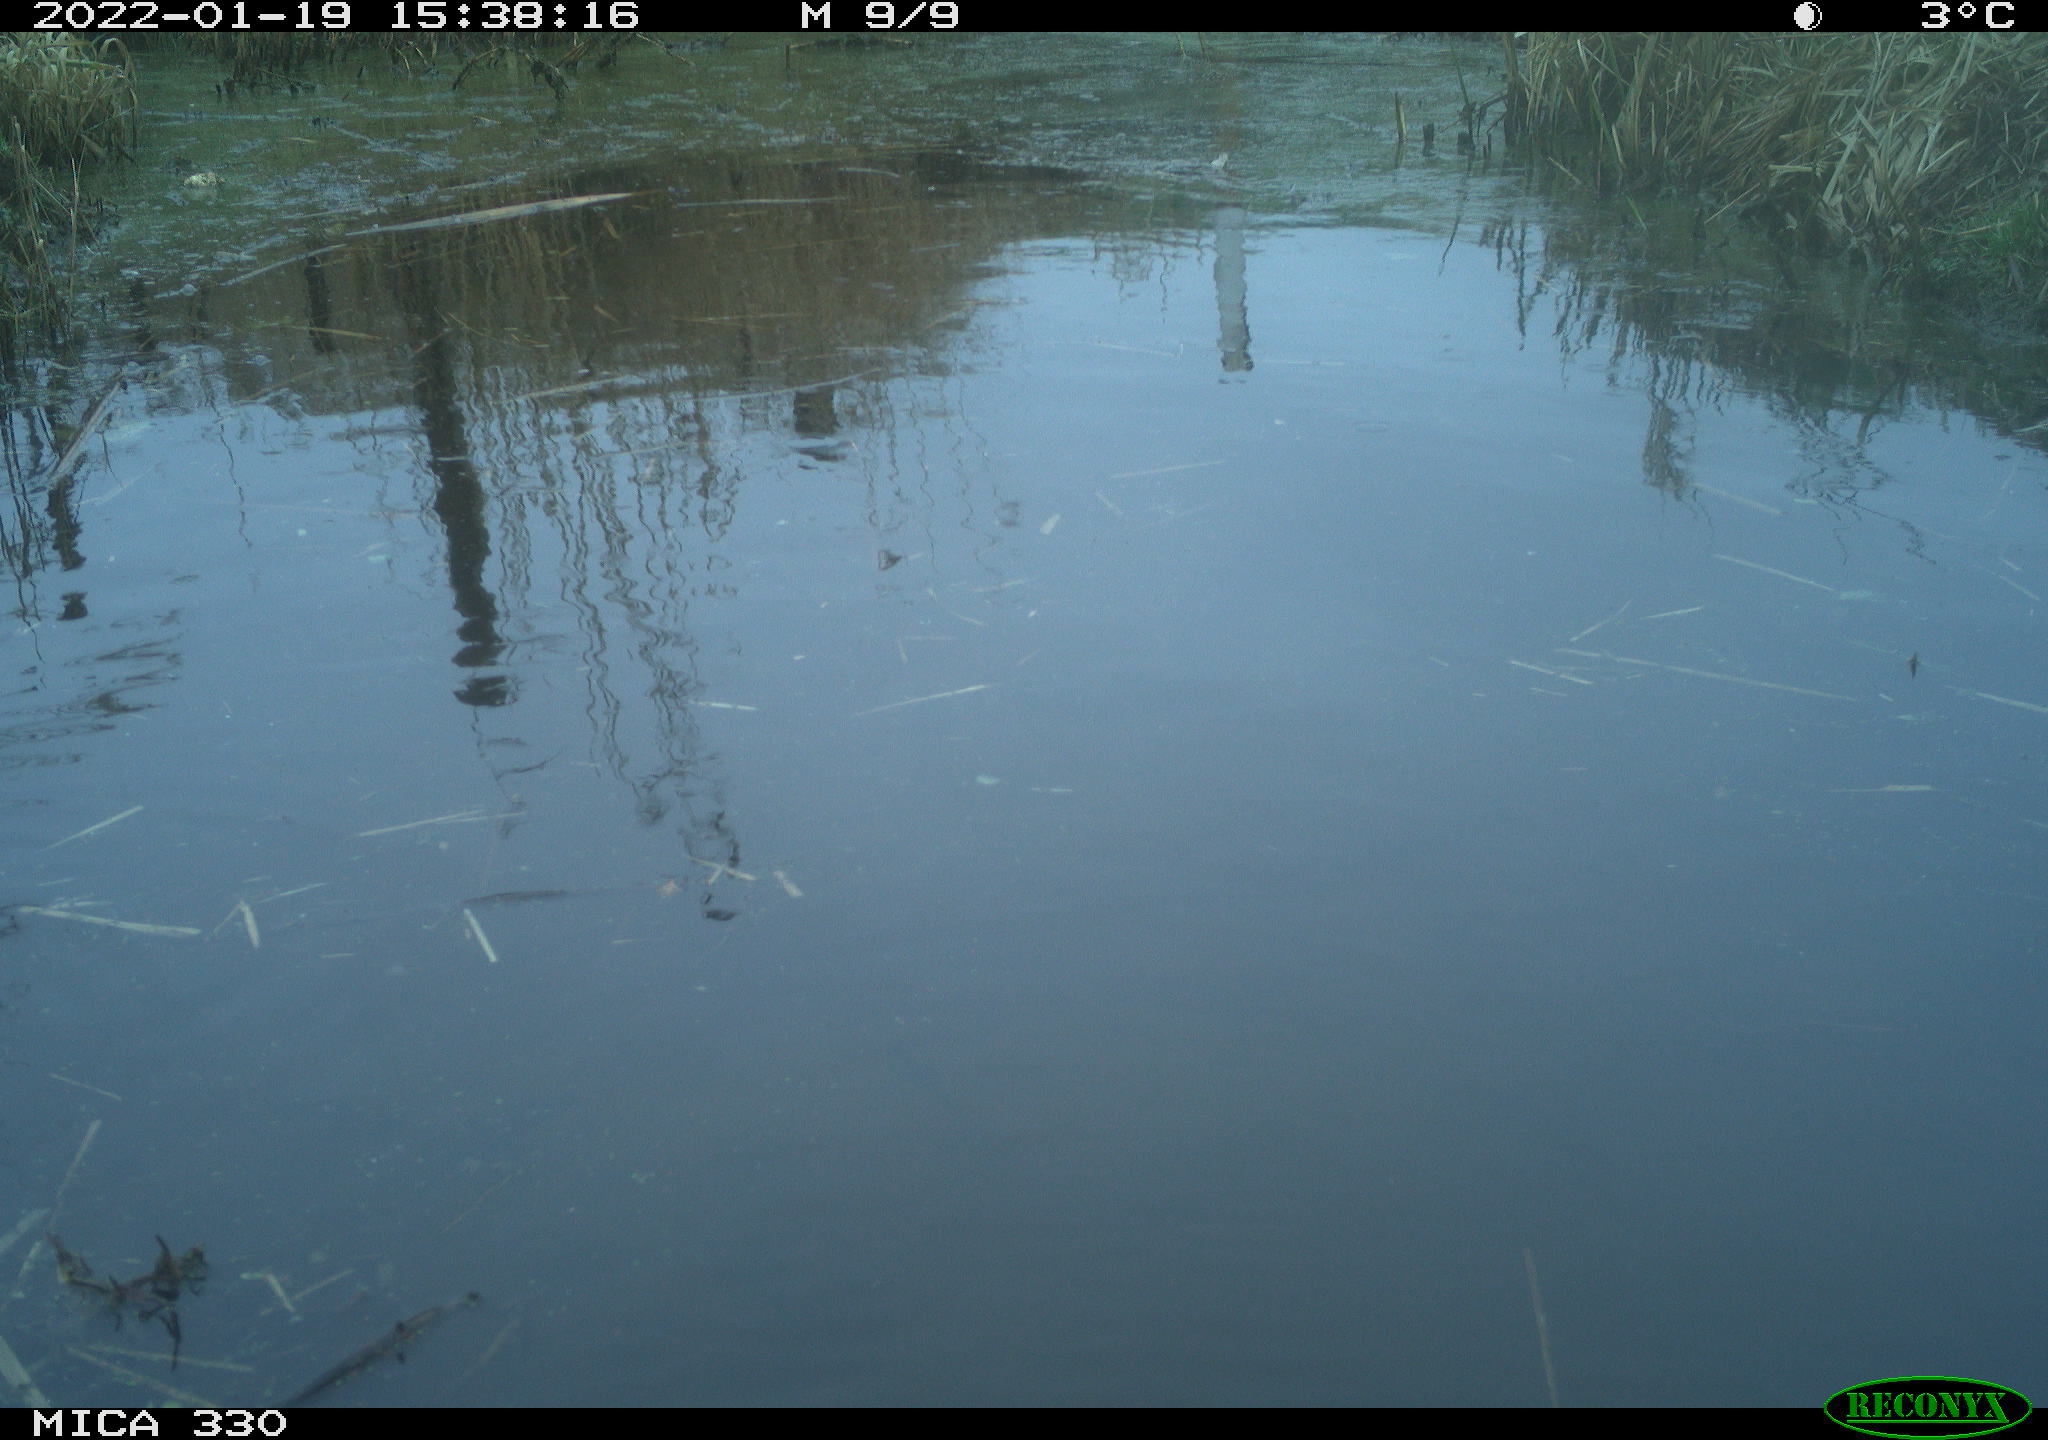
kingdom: Animalia
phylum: Chordata
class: Aves
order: Gruiformes
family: Rallidae
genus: Gallinula
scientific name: Gallinula chloropus
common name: Common moorhen
